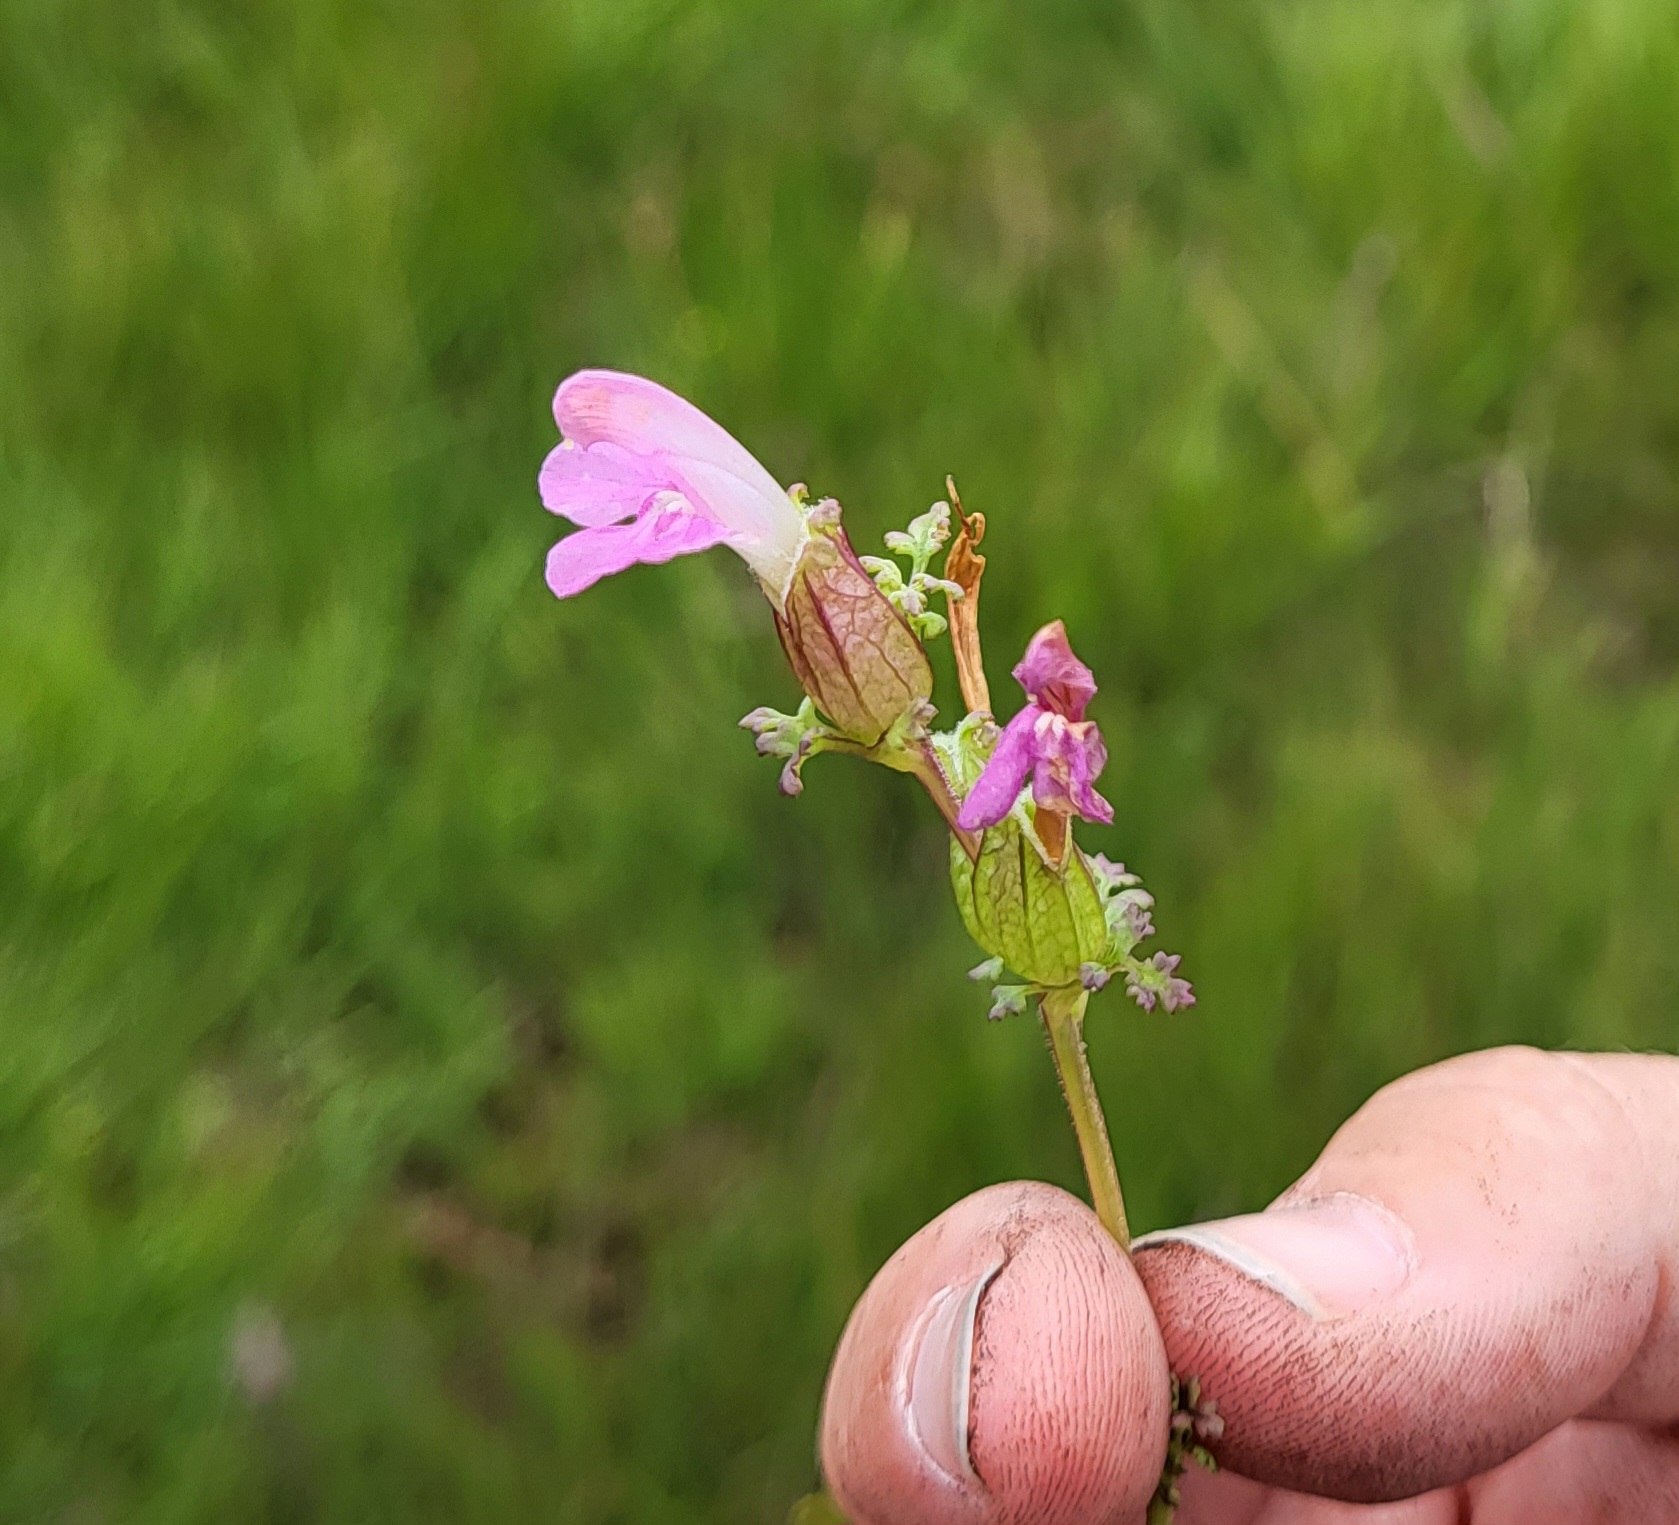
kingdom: Plantae
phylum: Tracheophyta
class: Magnoliopsida
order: Lamiales
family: Orobanchaceae
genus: Pedicularis
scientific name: Pedicularis palustris
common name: Eng-troldurt
